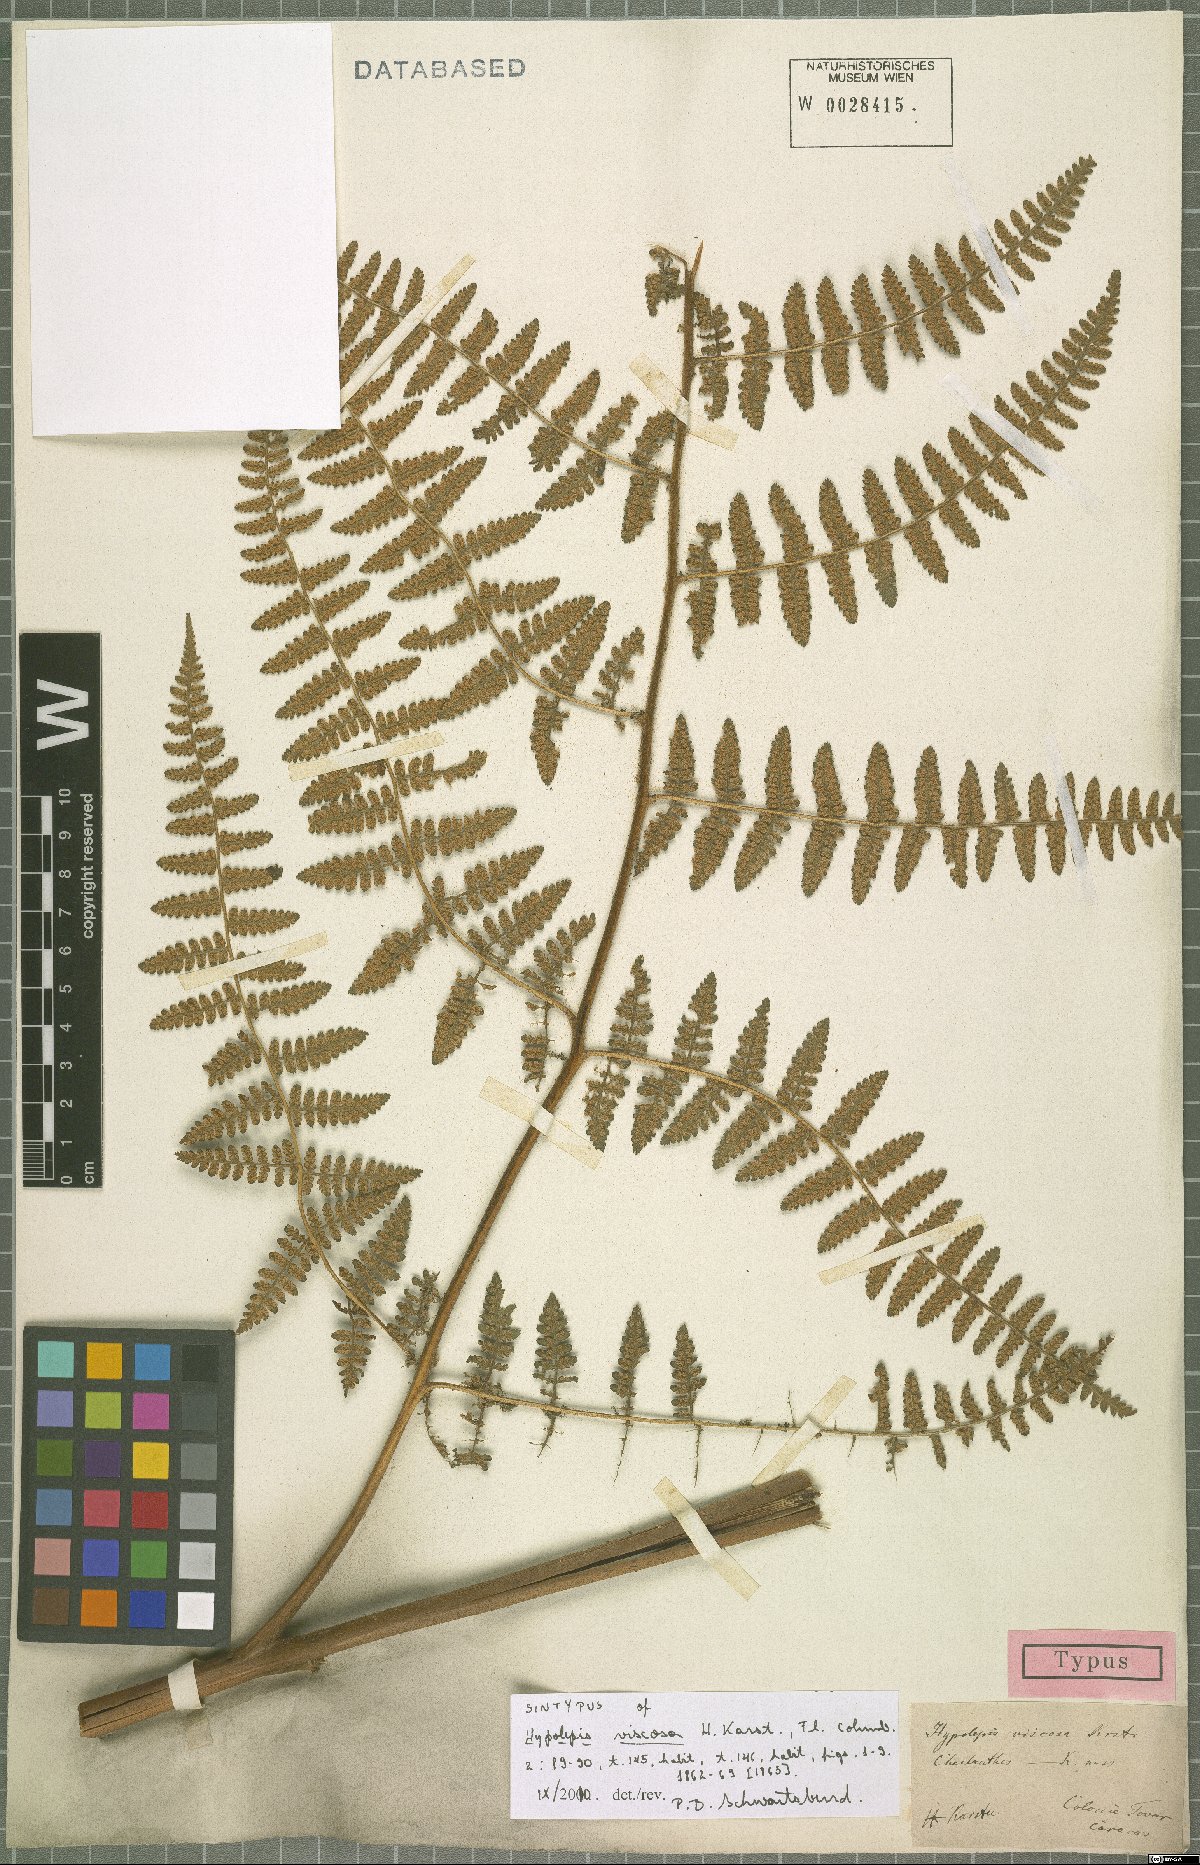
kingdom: Plantae
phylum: Tracheophyta
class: Polypodiopsida
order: Polypodiales
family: Dennstaedtiaceae
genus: Hypolepis
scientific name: Hypolepis viscosa
